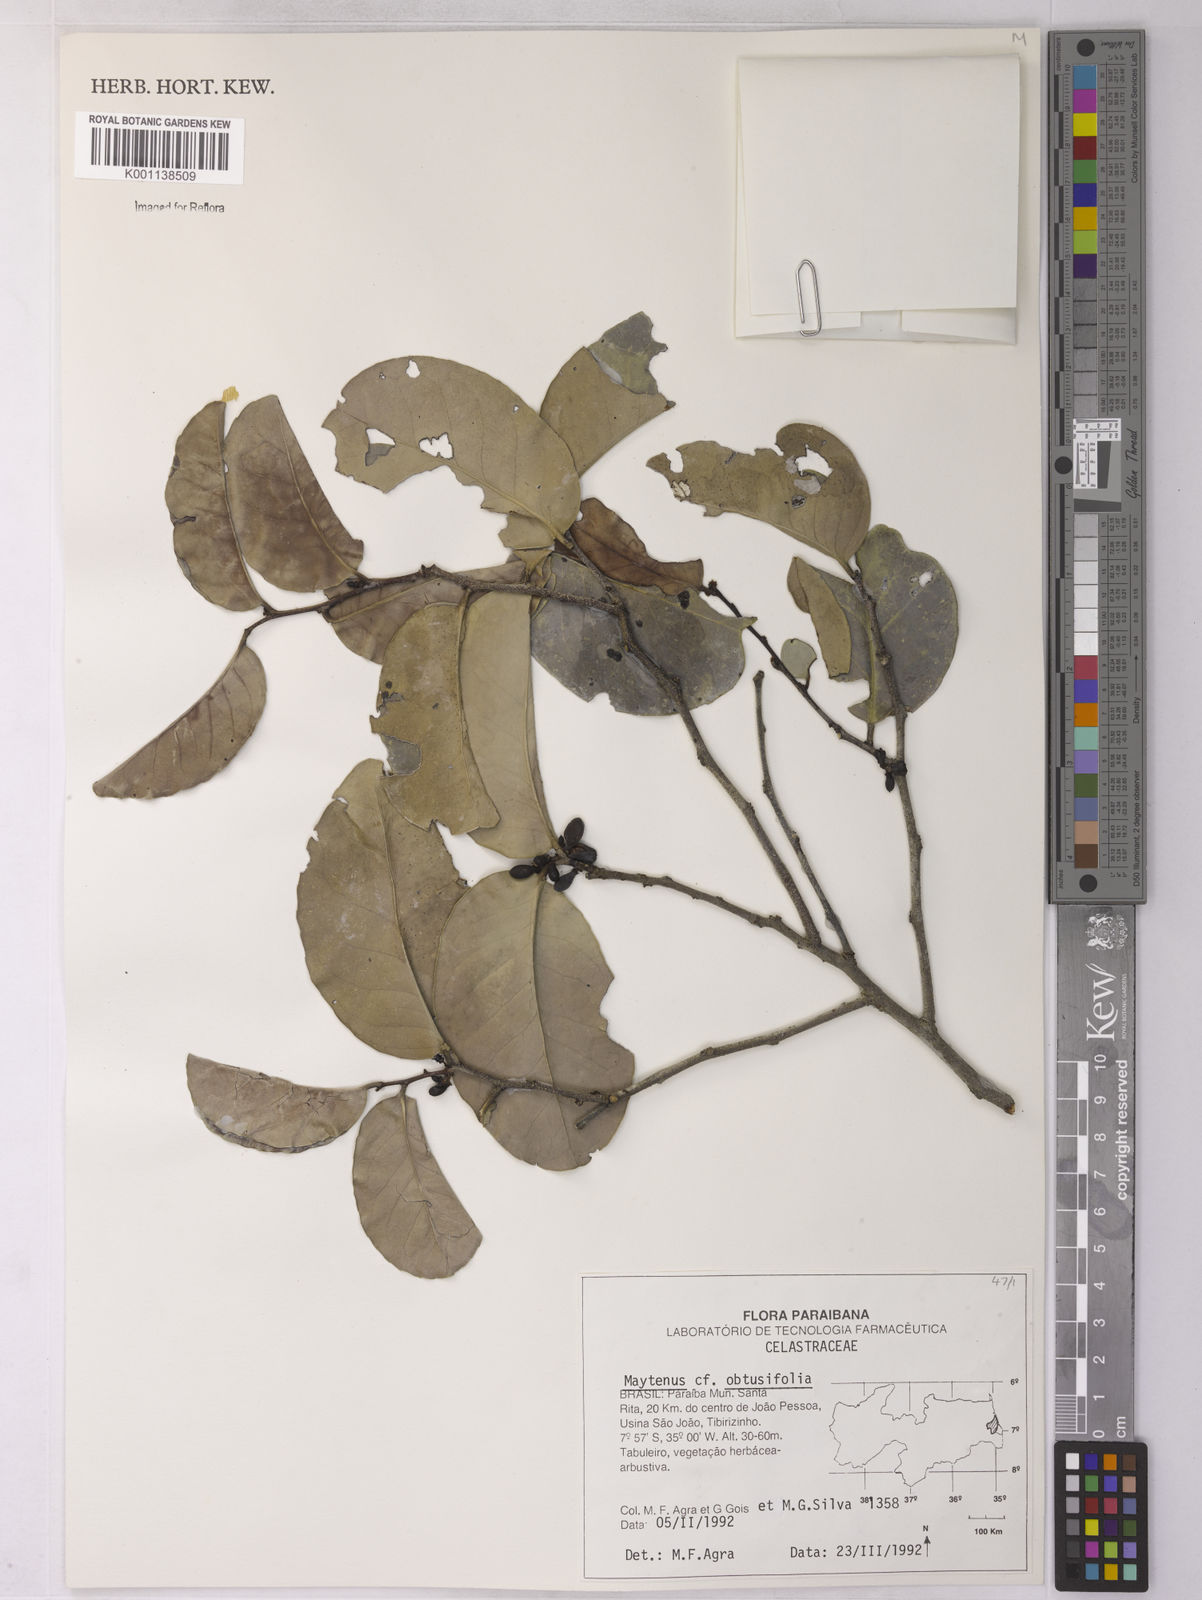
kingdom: Plantae
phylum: Tracheophyta
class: Magnoliopsida
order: Celastrales
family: Celastraceae
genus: Monteverdia
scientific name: Monteverdia obtusifolia
